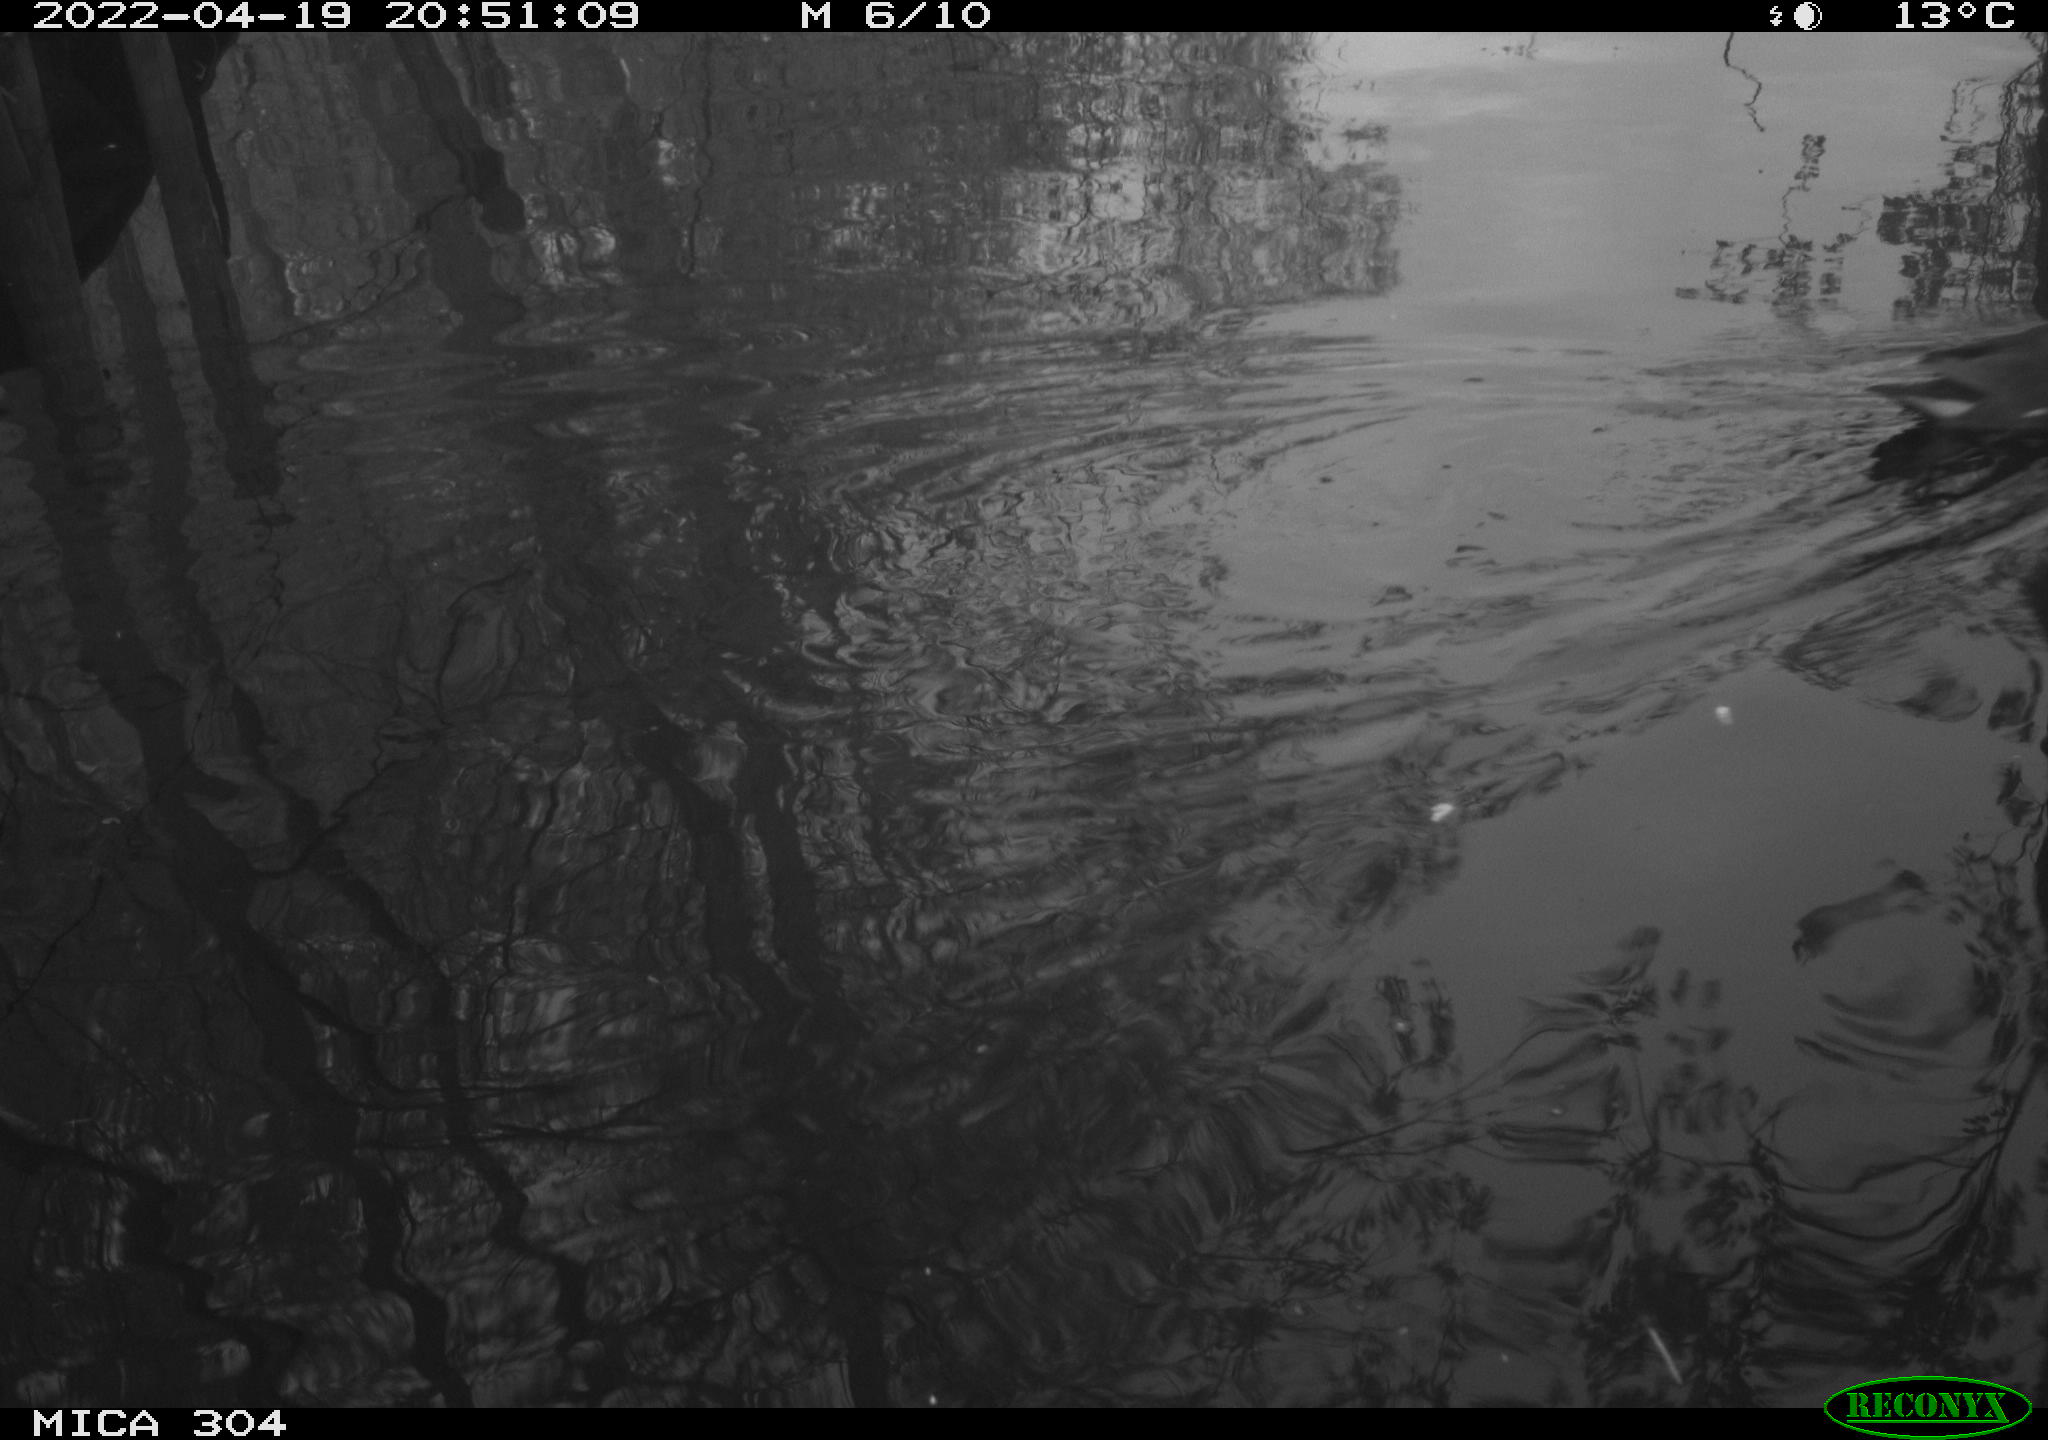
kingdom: Animalia
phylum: Chordata
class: Aves
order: Gruiformes
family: Rallidae
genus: Gallinula
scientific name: Gallinula chloropus
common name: Common moorhen
